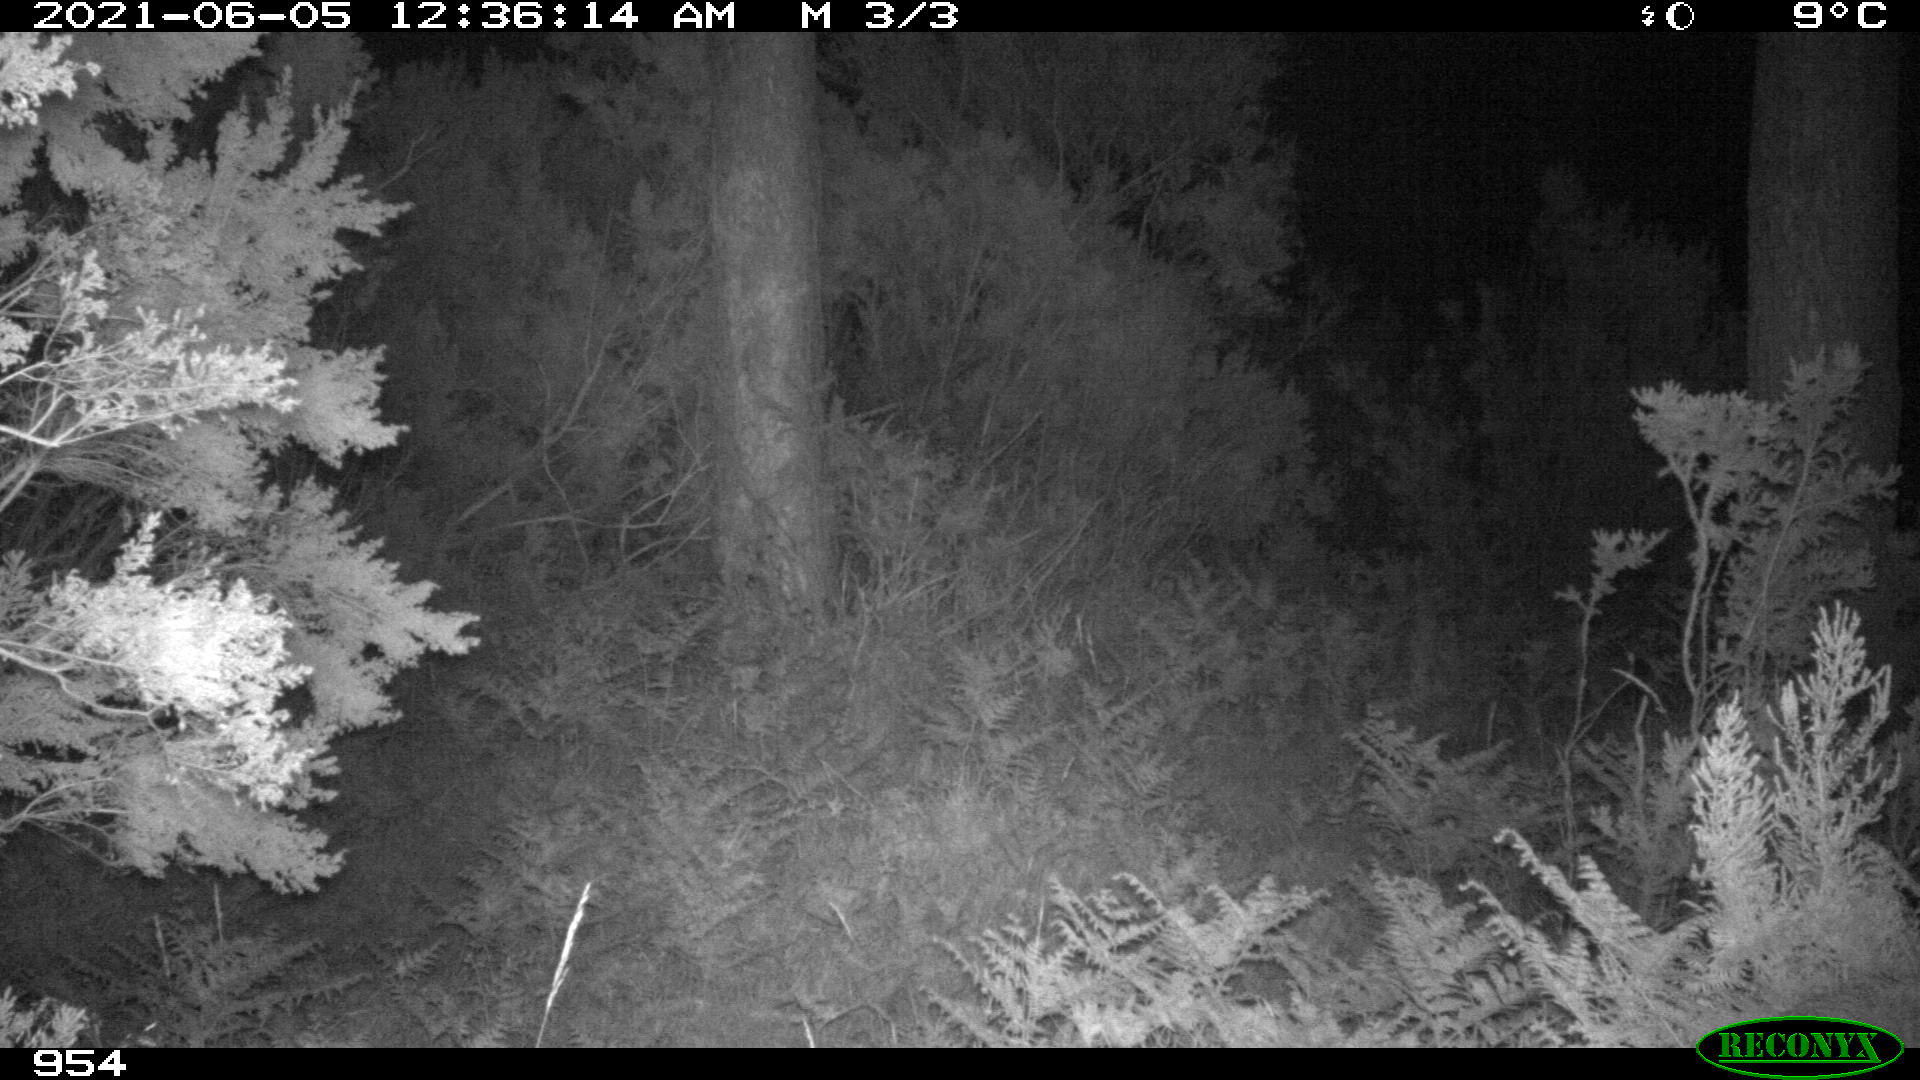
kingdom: Animalia
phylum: Chordata
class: Mammalia
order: Artiodactyla
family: Cervidae
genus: Capreolus
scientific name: Capreolus capreolus
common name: Western roe deer
